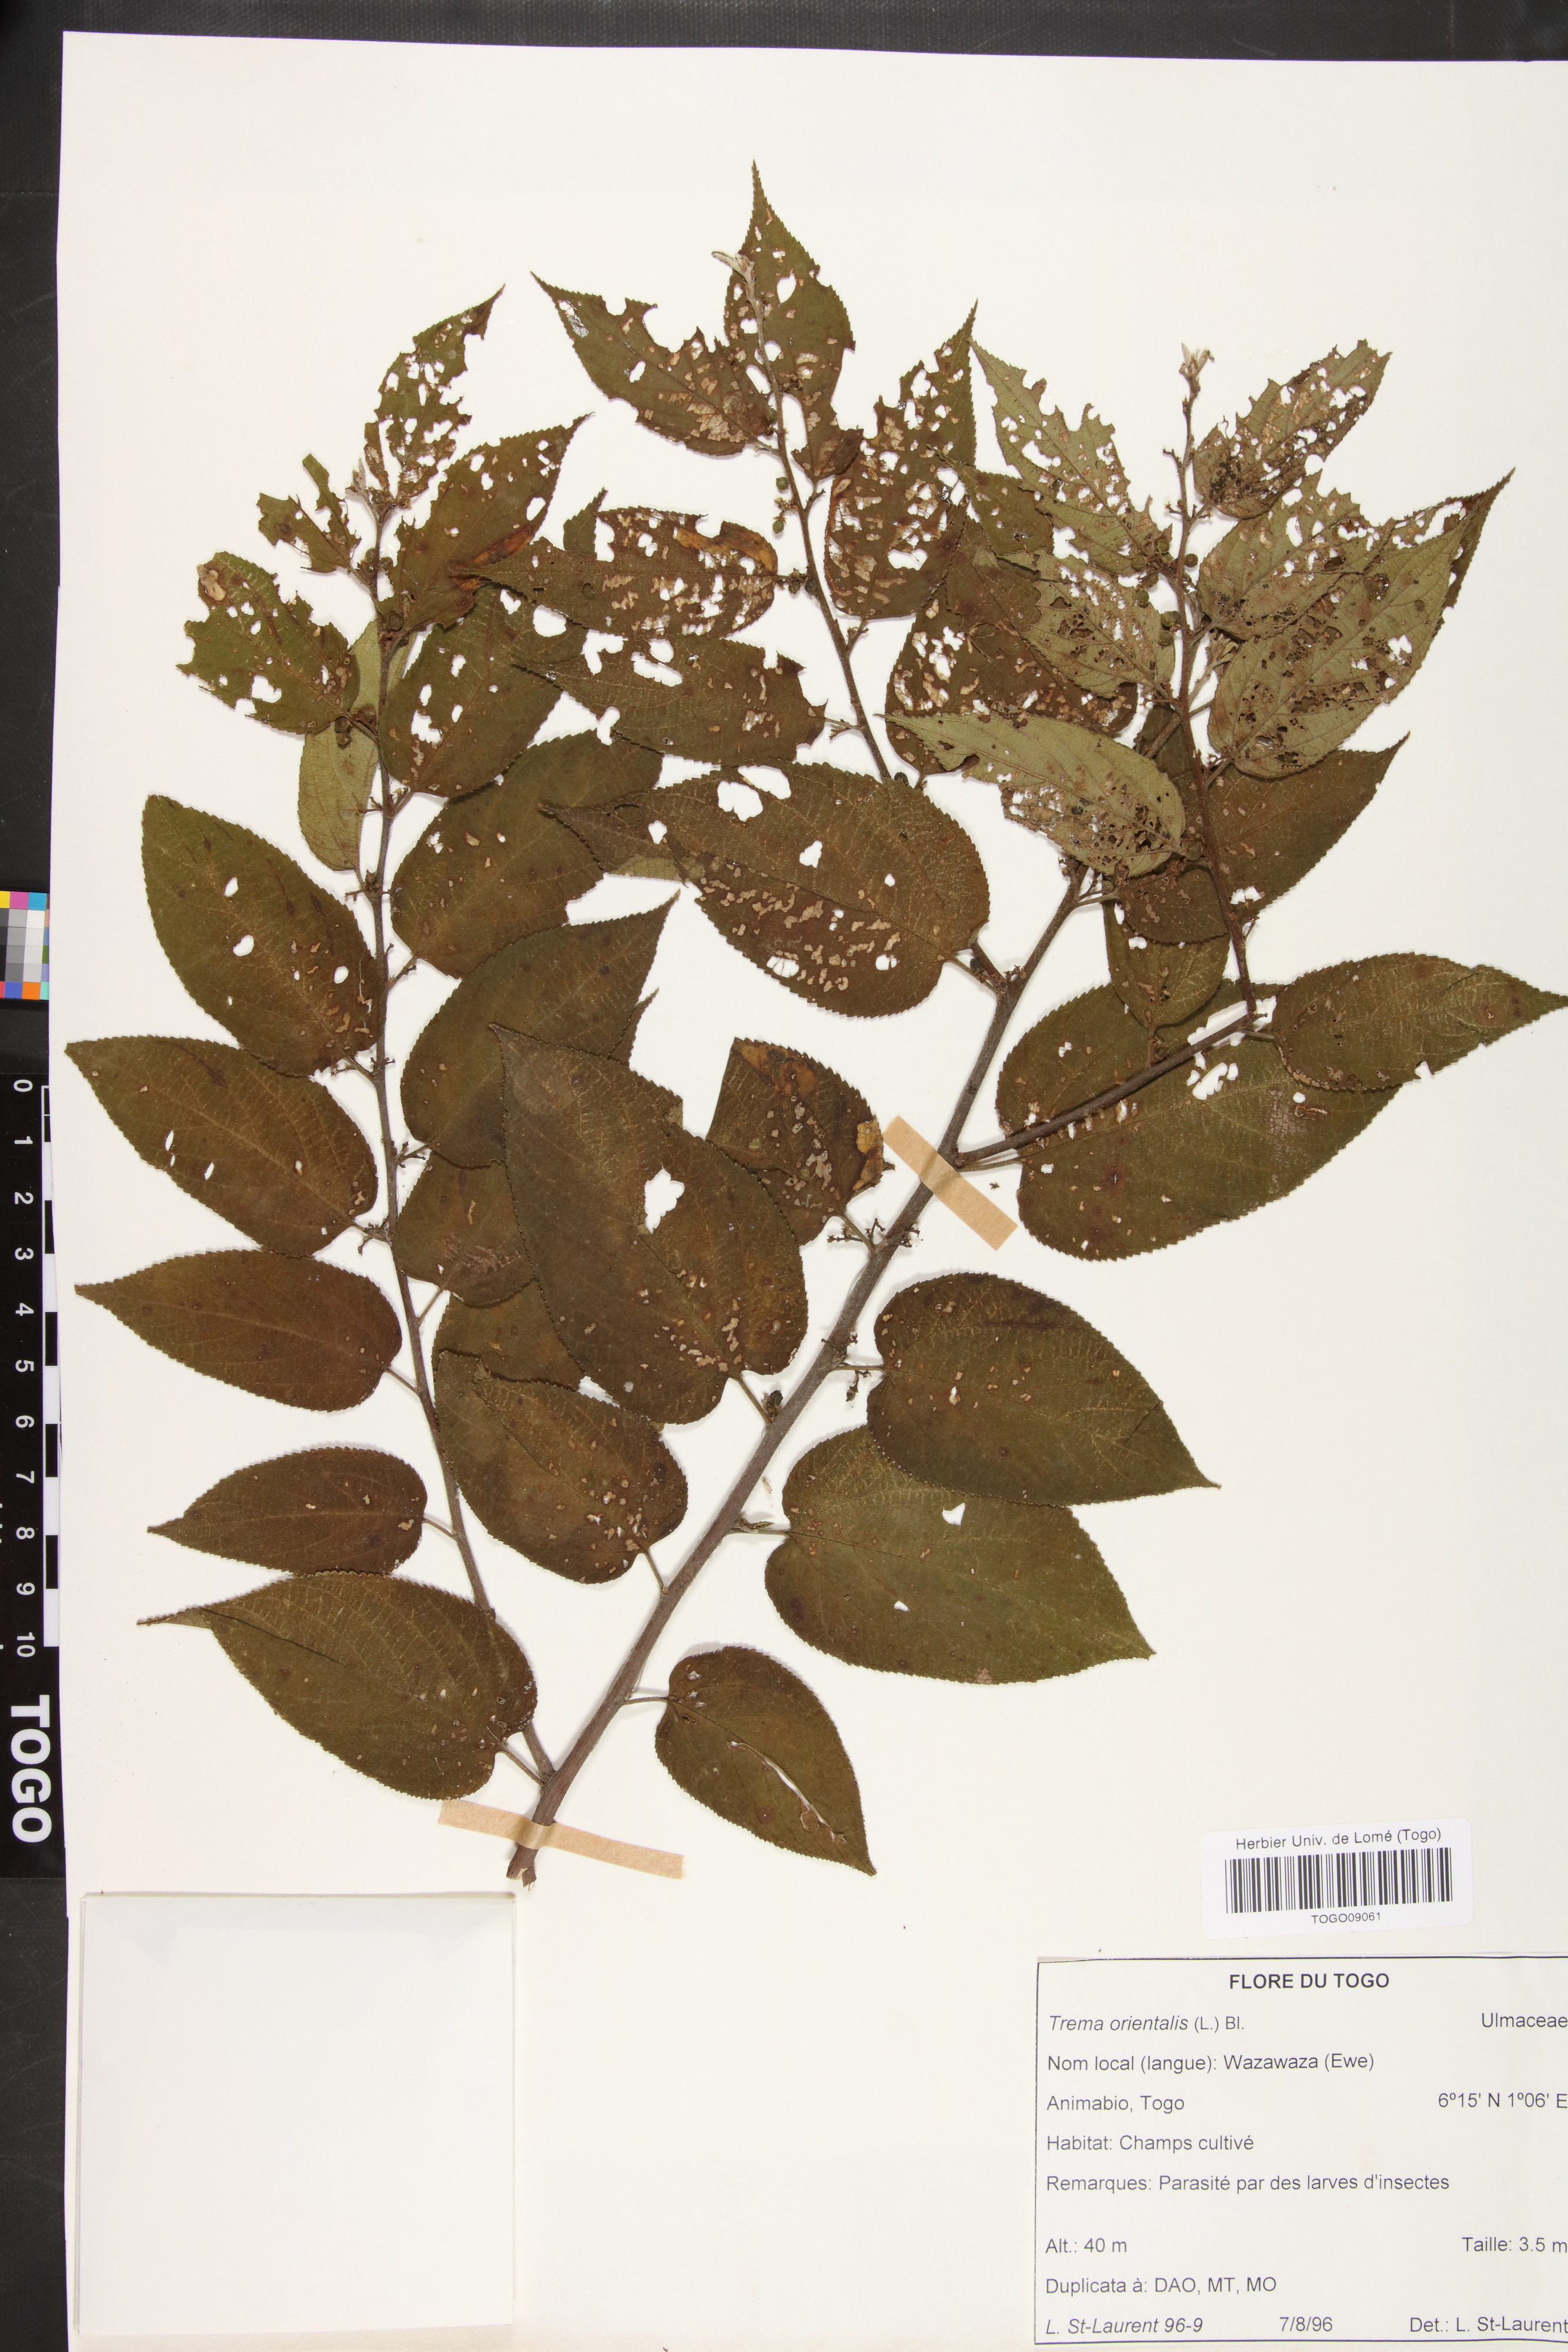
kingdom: Plantae
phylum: Tracheophyta
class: Magnoliopsida
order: Rosales
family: Cannabaceae
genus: Trema
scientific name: Trema orientale
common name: Indian charcoal tree
